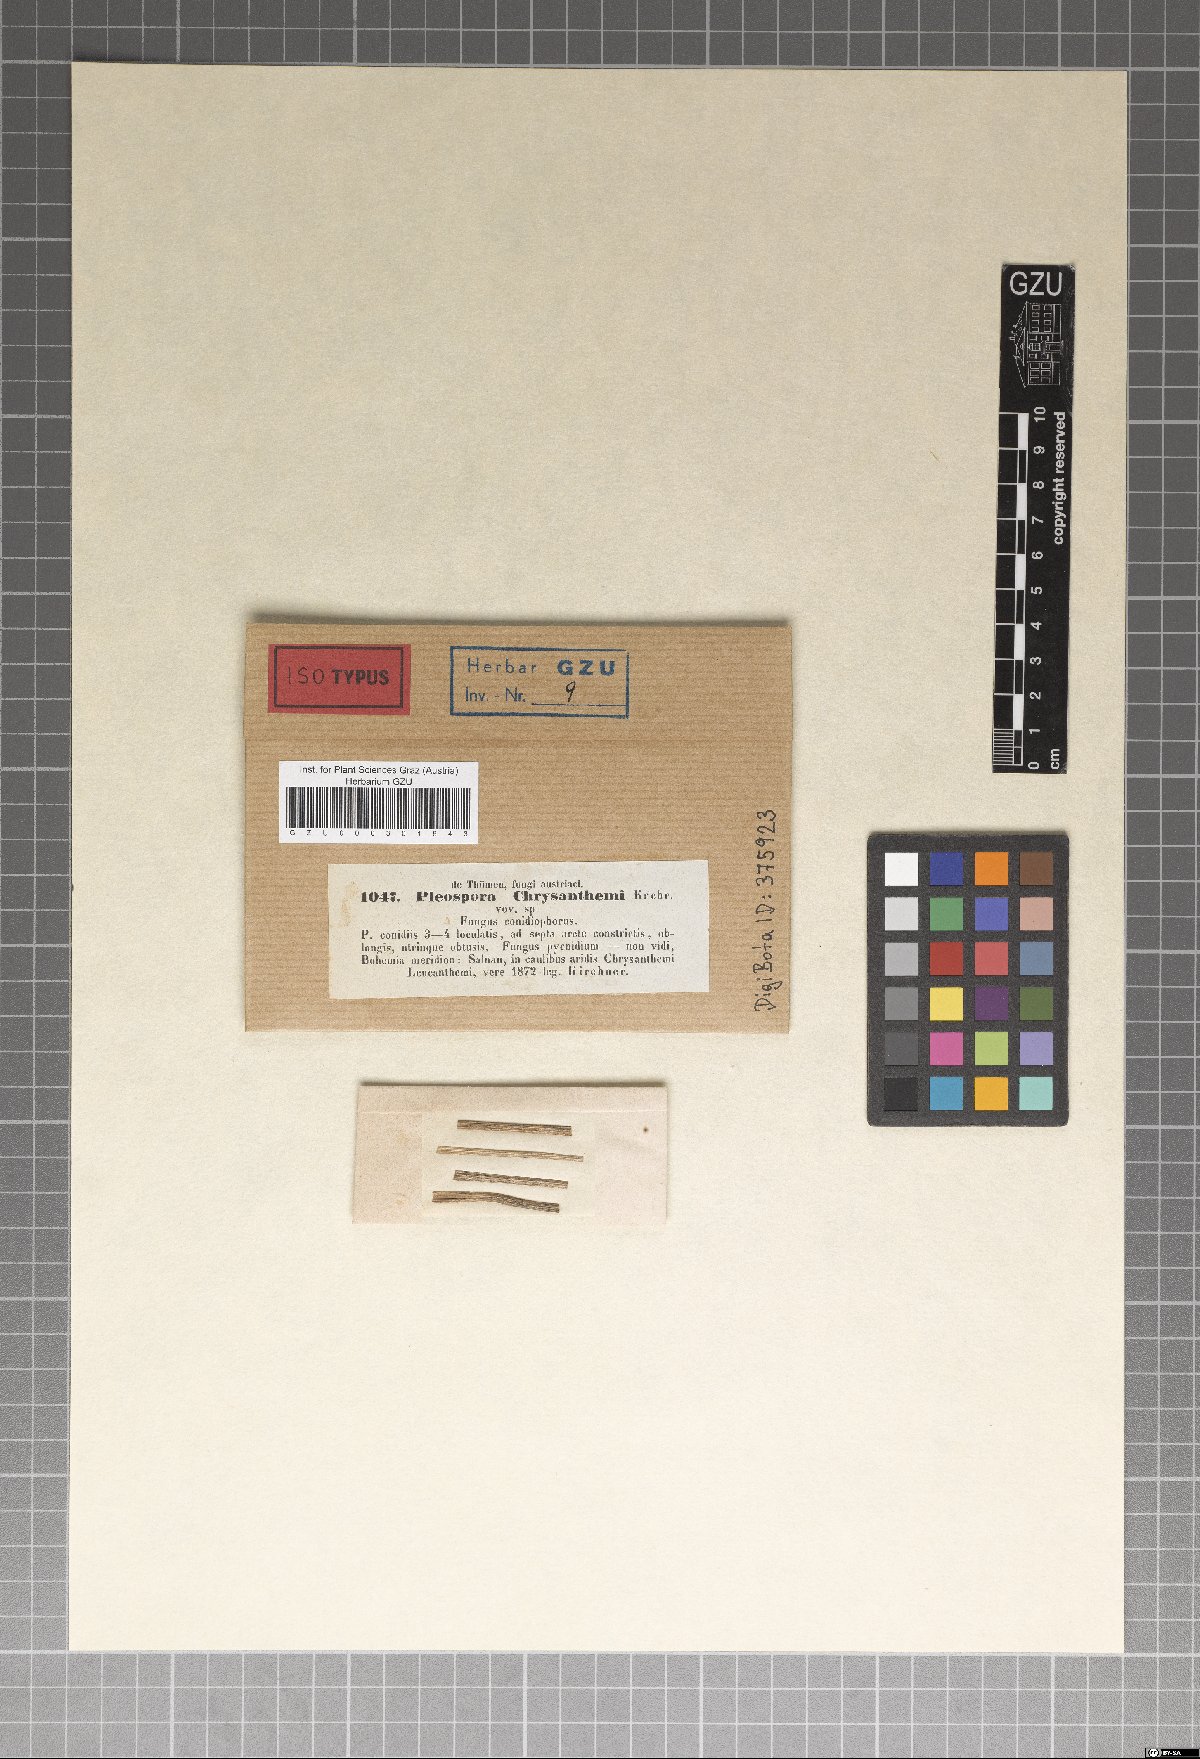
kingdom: Fungi
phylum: Ascomycota
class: Dothideomycetes
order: Pleosporales
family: Pleosporaceae
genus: Pleospora
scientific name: Pleospora
